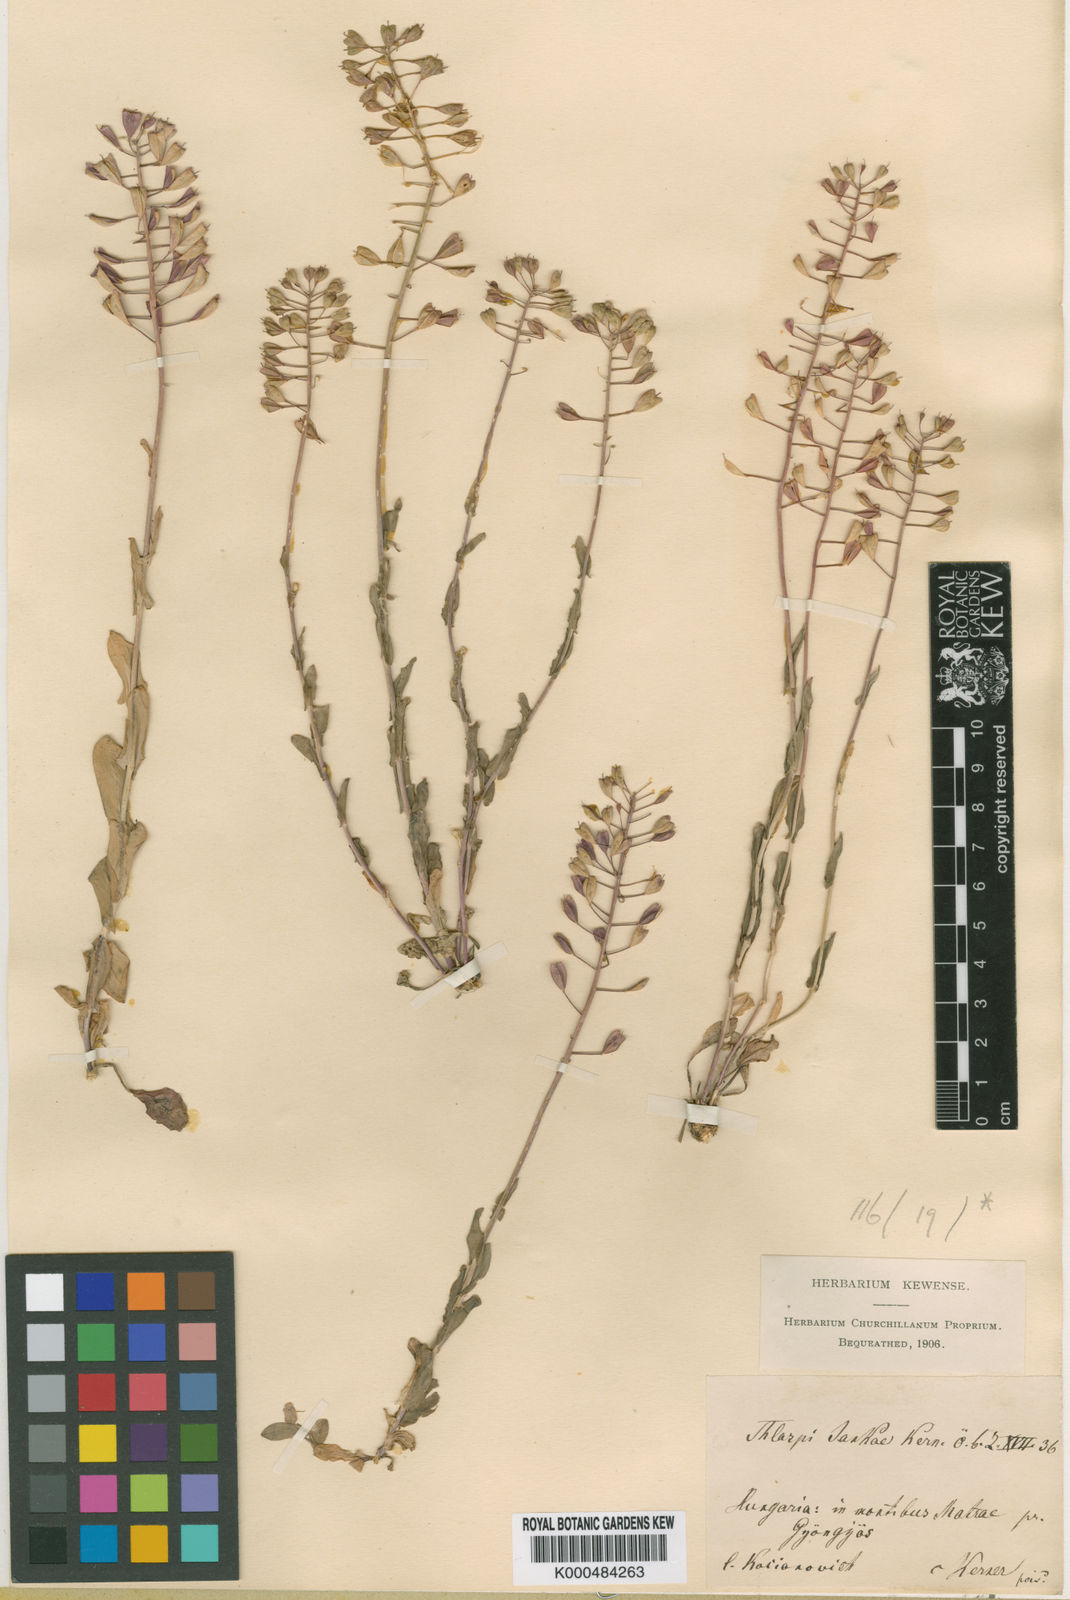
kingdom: Plantae
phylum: Tracheophyta
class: Magnoliopsida
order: Brassicales
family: Brassicaceae
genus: Noccaea
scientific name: Noccaea jankae
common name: Slovak penny-cress
